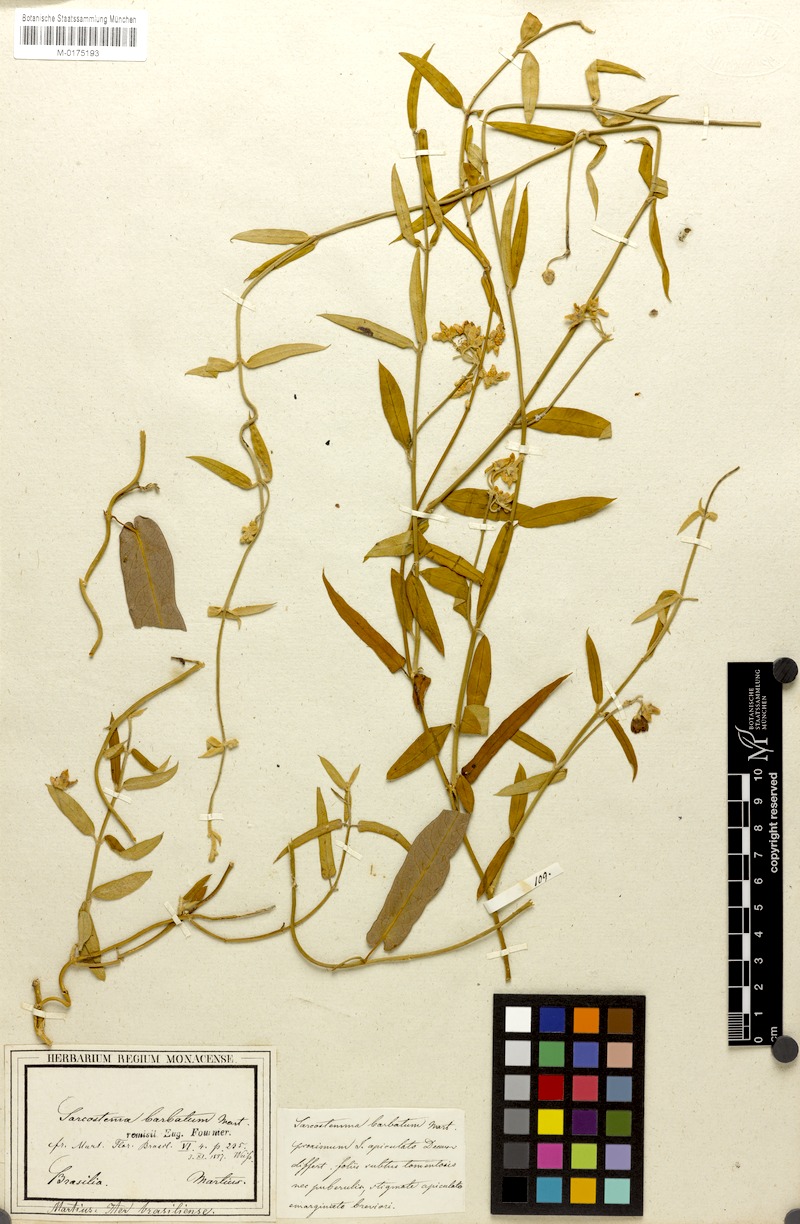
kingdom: Plantae
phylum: Tracheophyta
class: Magnoliopsida
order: Gentianales
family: Apocynaceae
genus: Funastrum
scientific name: Funastrum clausum
